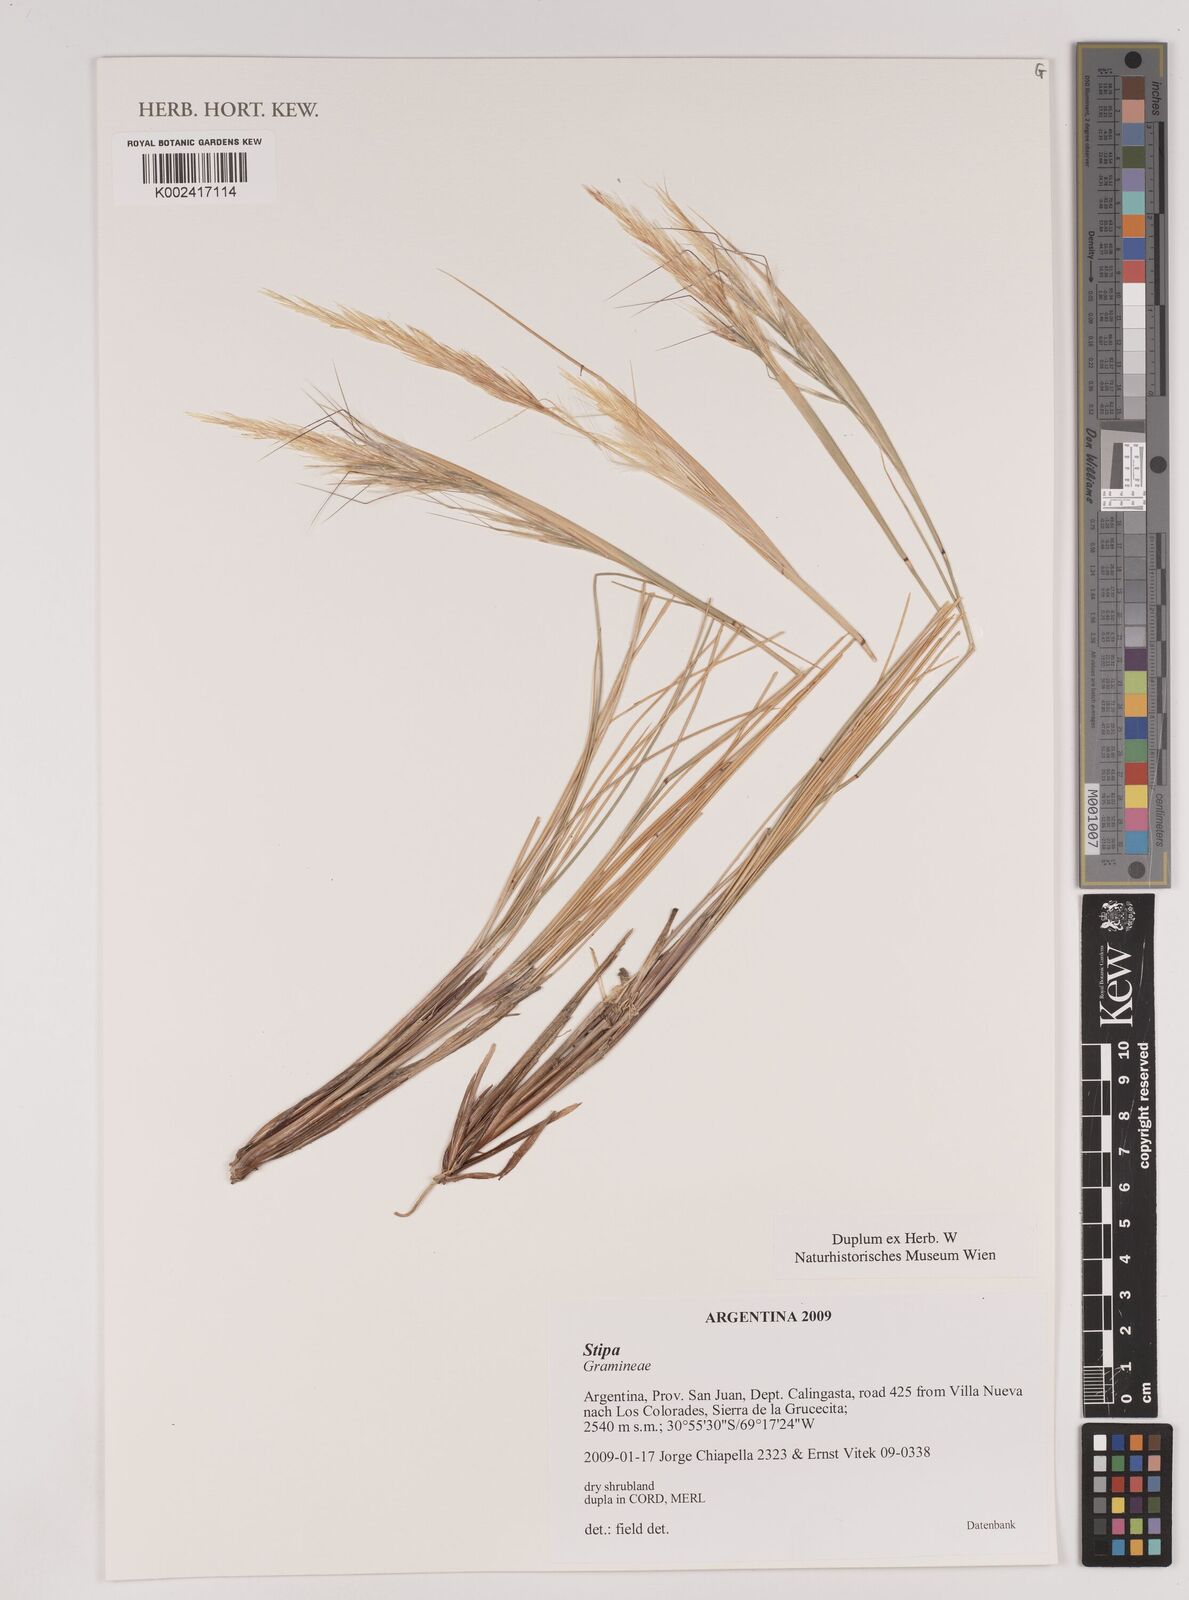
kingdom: Plantae
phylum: Tracheophyta
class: Liliopsida
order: Poales
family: Poaceae
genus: Stipa
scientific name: Stipa
